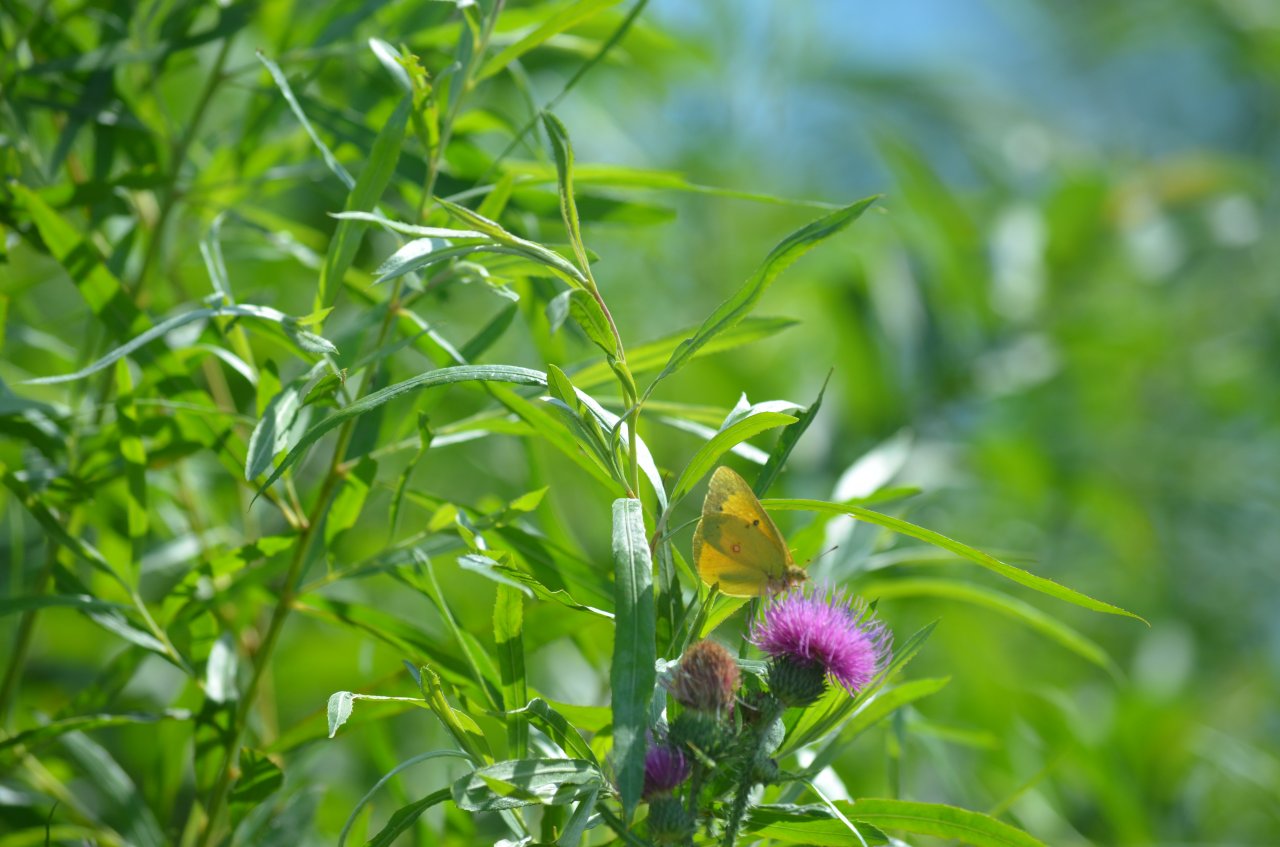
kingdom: Animalia
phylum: Arthropoda
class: Insecta
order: Lepidoptera
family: Pieridae
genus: Colias
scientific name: Colias eurytheme
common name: Orange Sulphur
